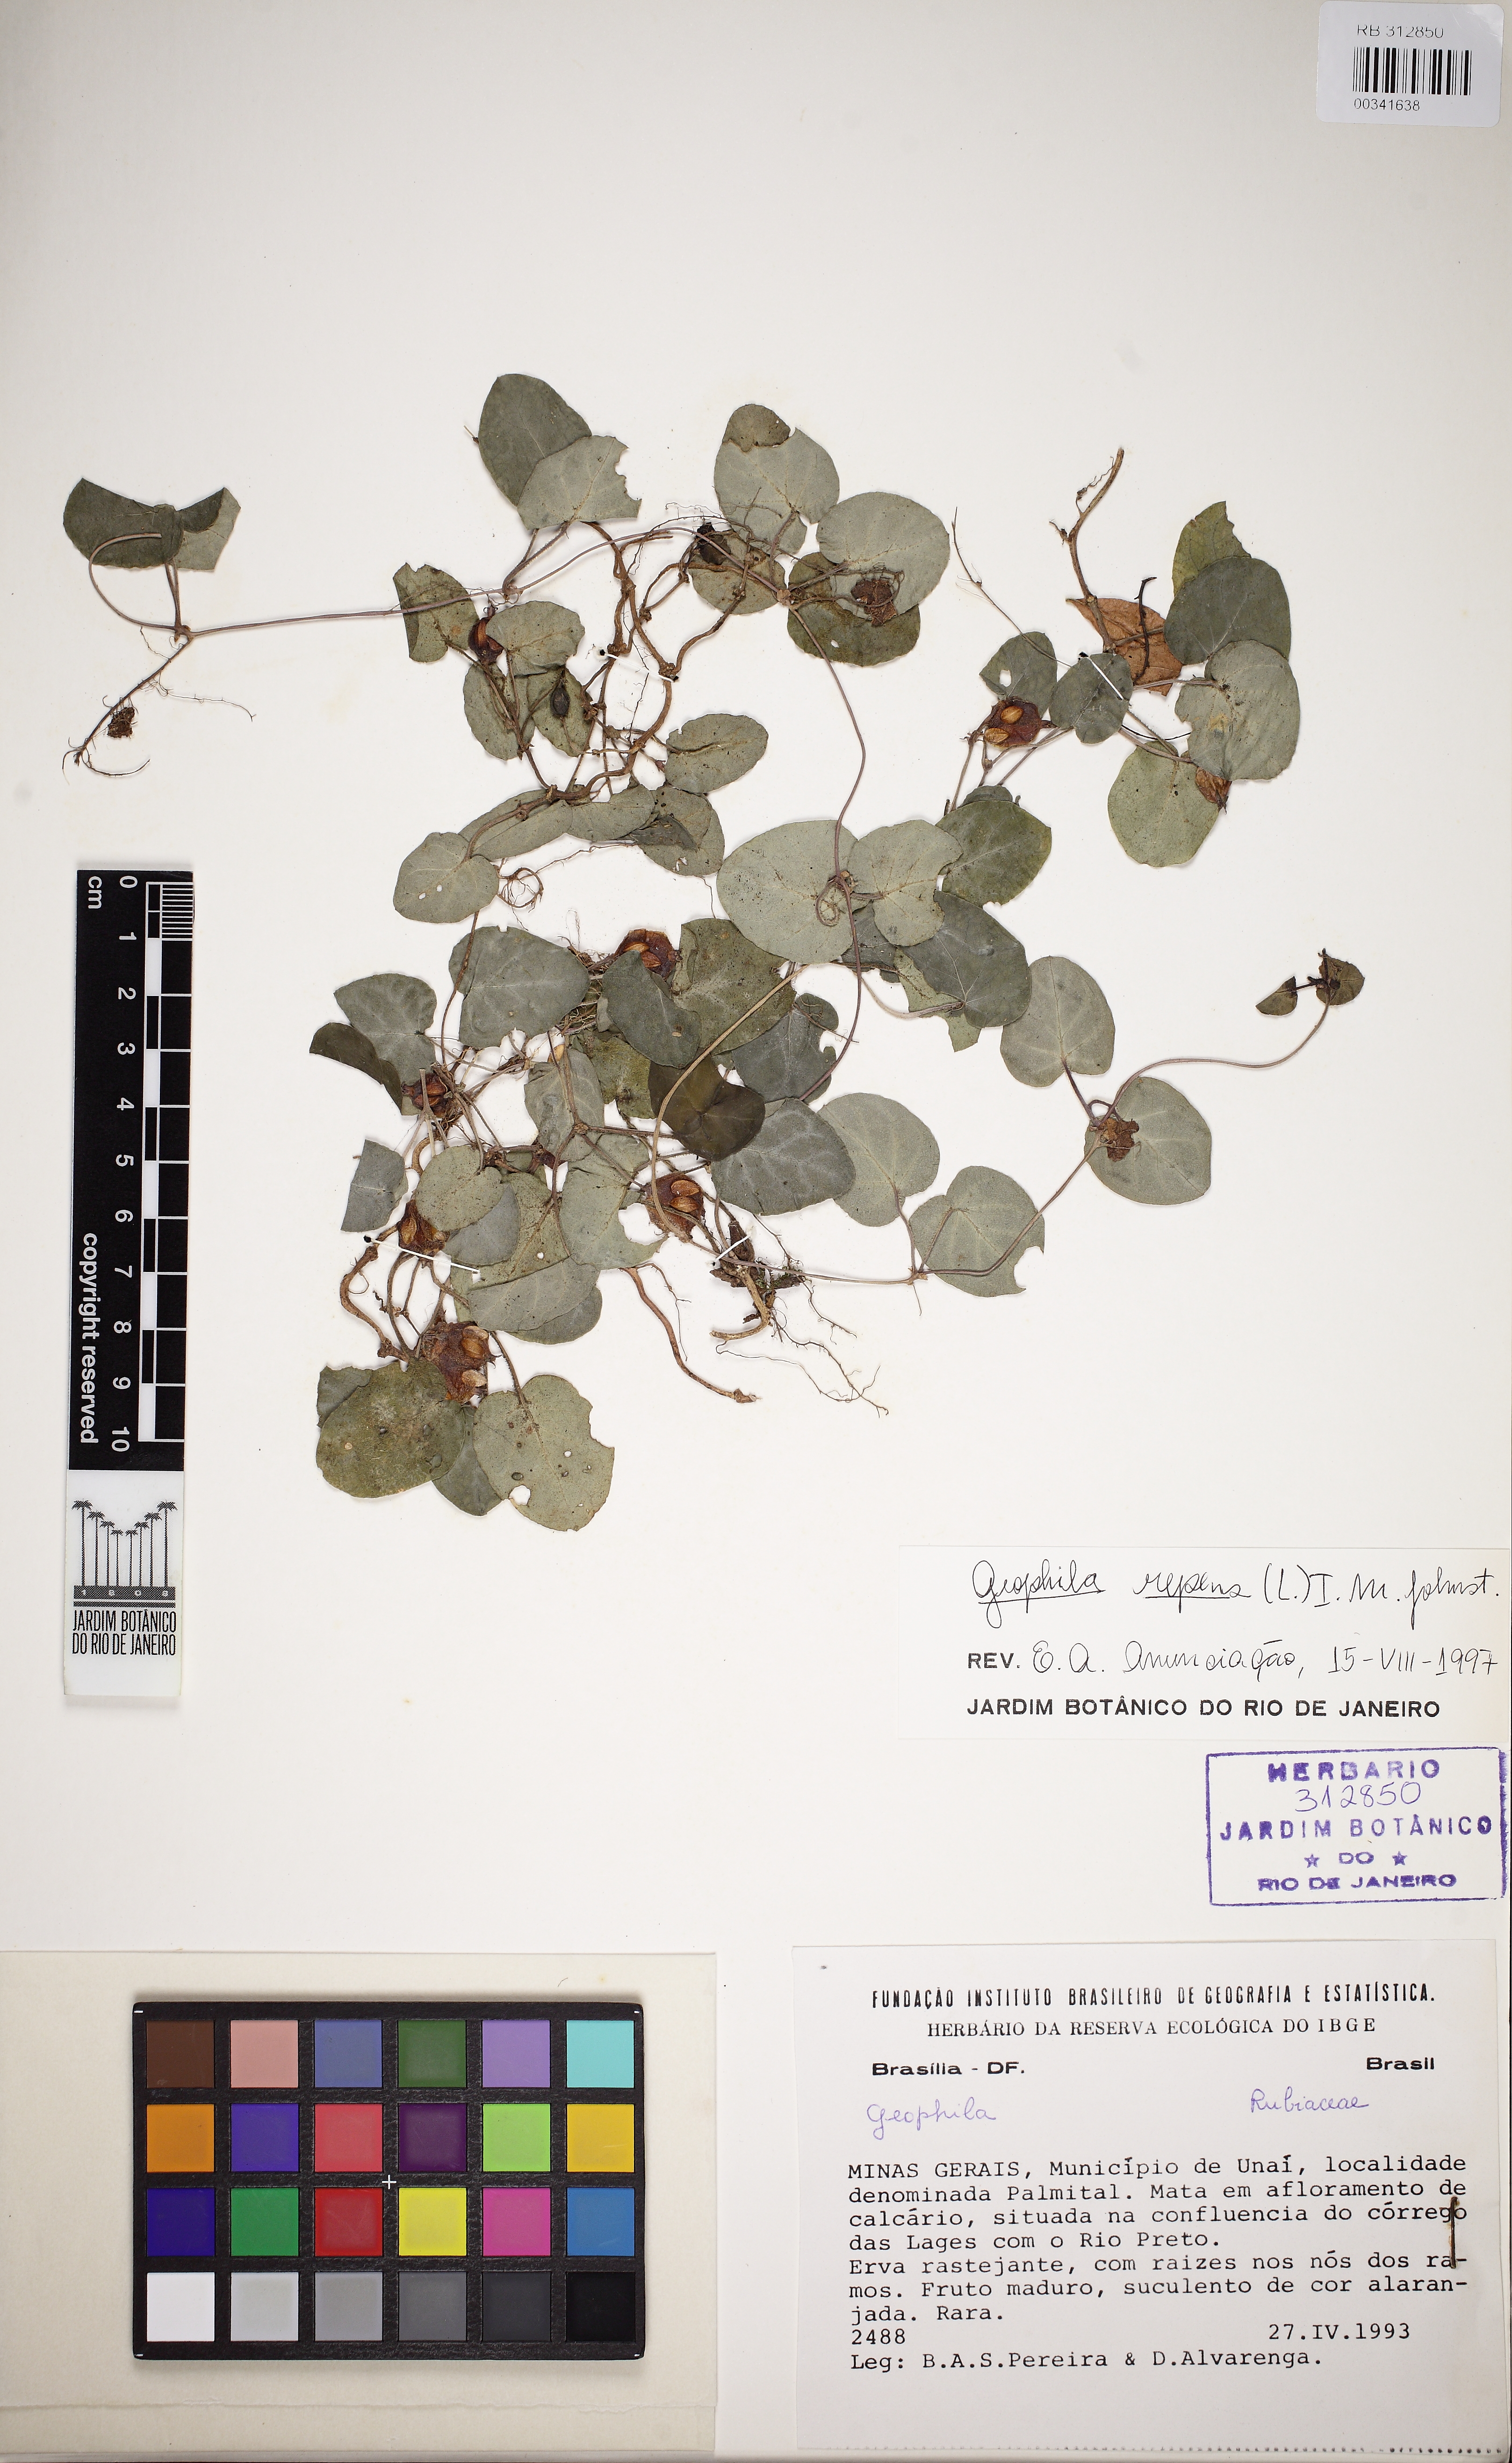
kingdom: Plantae
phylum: Tracheophyta
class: Magnoliopsida
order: Gentianales
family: Rubiaceae
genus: Geophila
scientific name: Geophila repens
